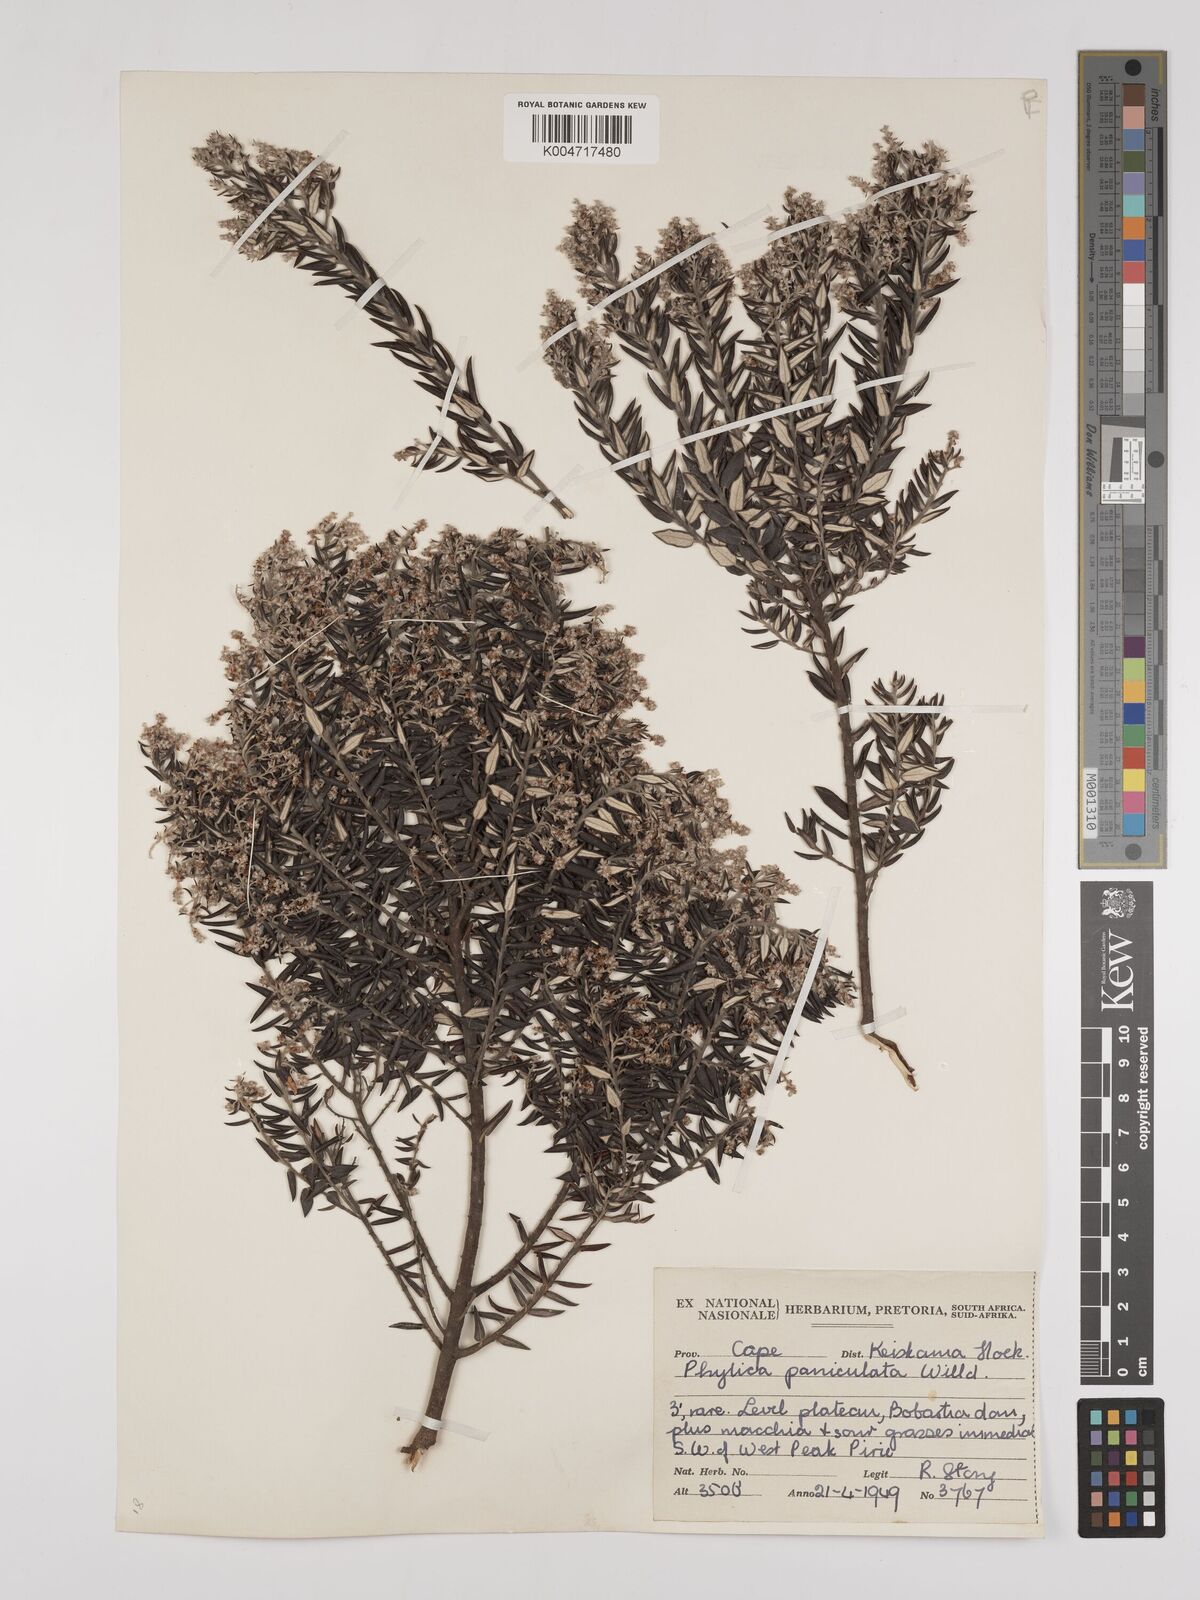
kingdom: Plantae
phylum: Tracheophyta
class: Magnoliopsida
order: Rosales
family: Rhamnaceae
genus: Phylica
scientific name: Phylica paniculata
